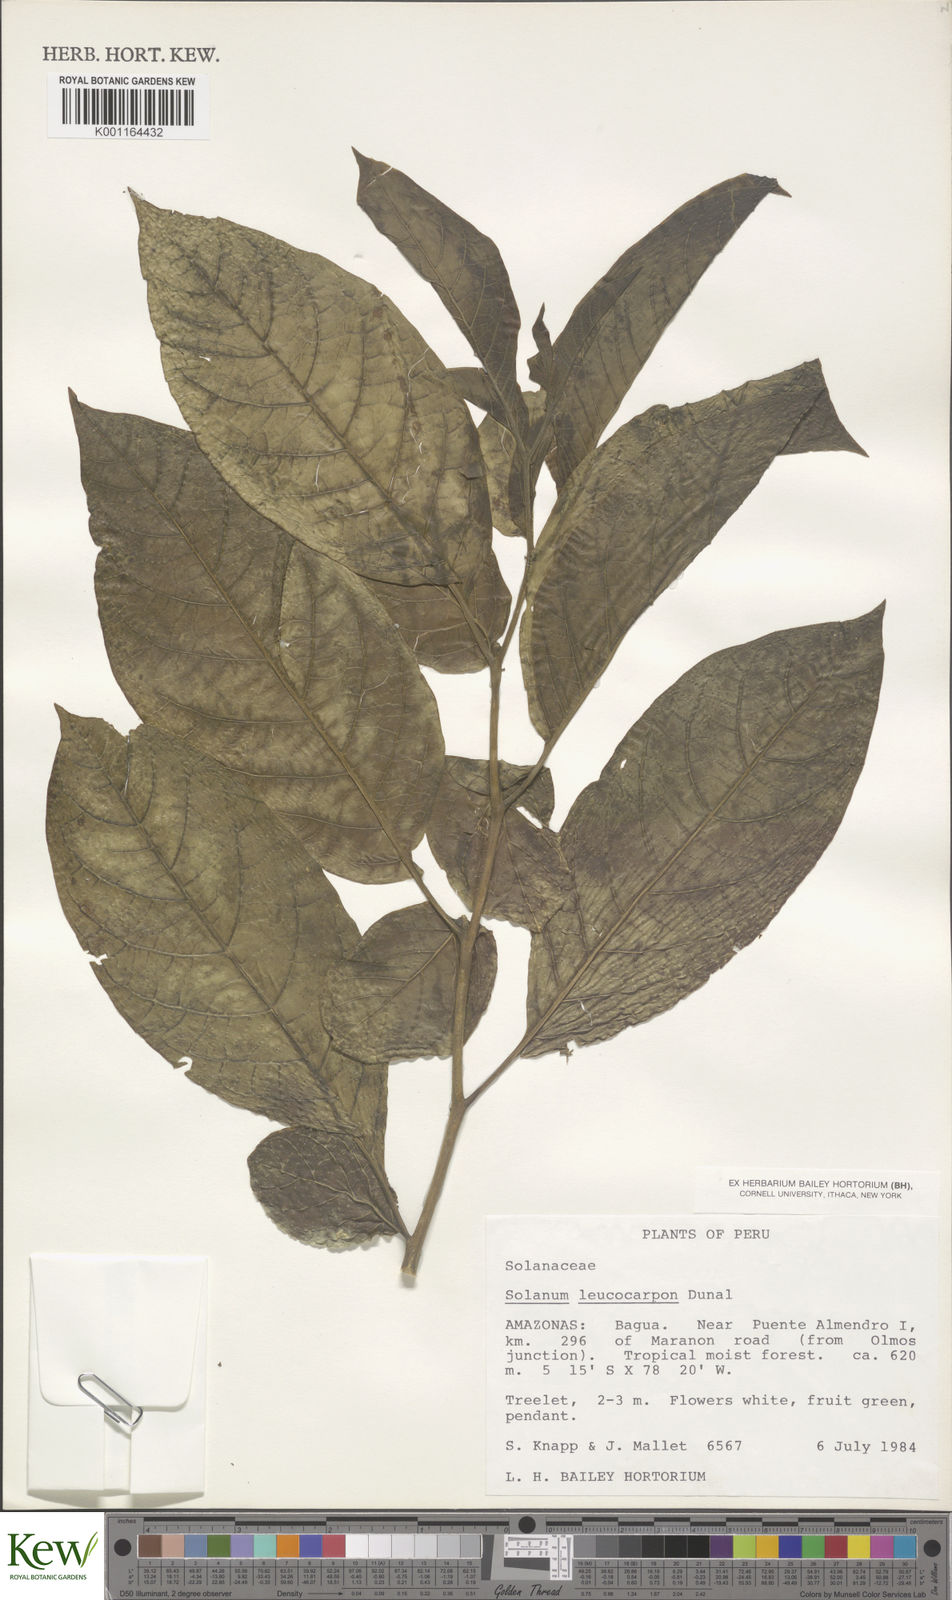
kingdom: Plantae
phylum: Tracheophyta
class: Magnoliopsida
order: Solanales
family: Solanaceae
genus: Solanum
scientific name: Solanum leucocarpon
